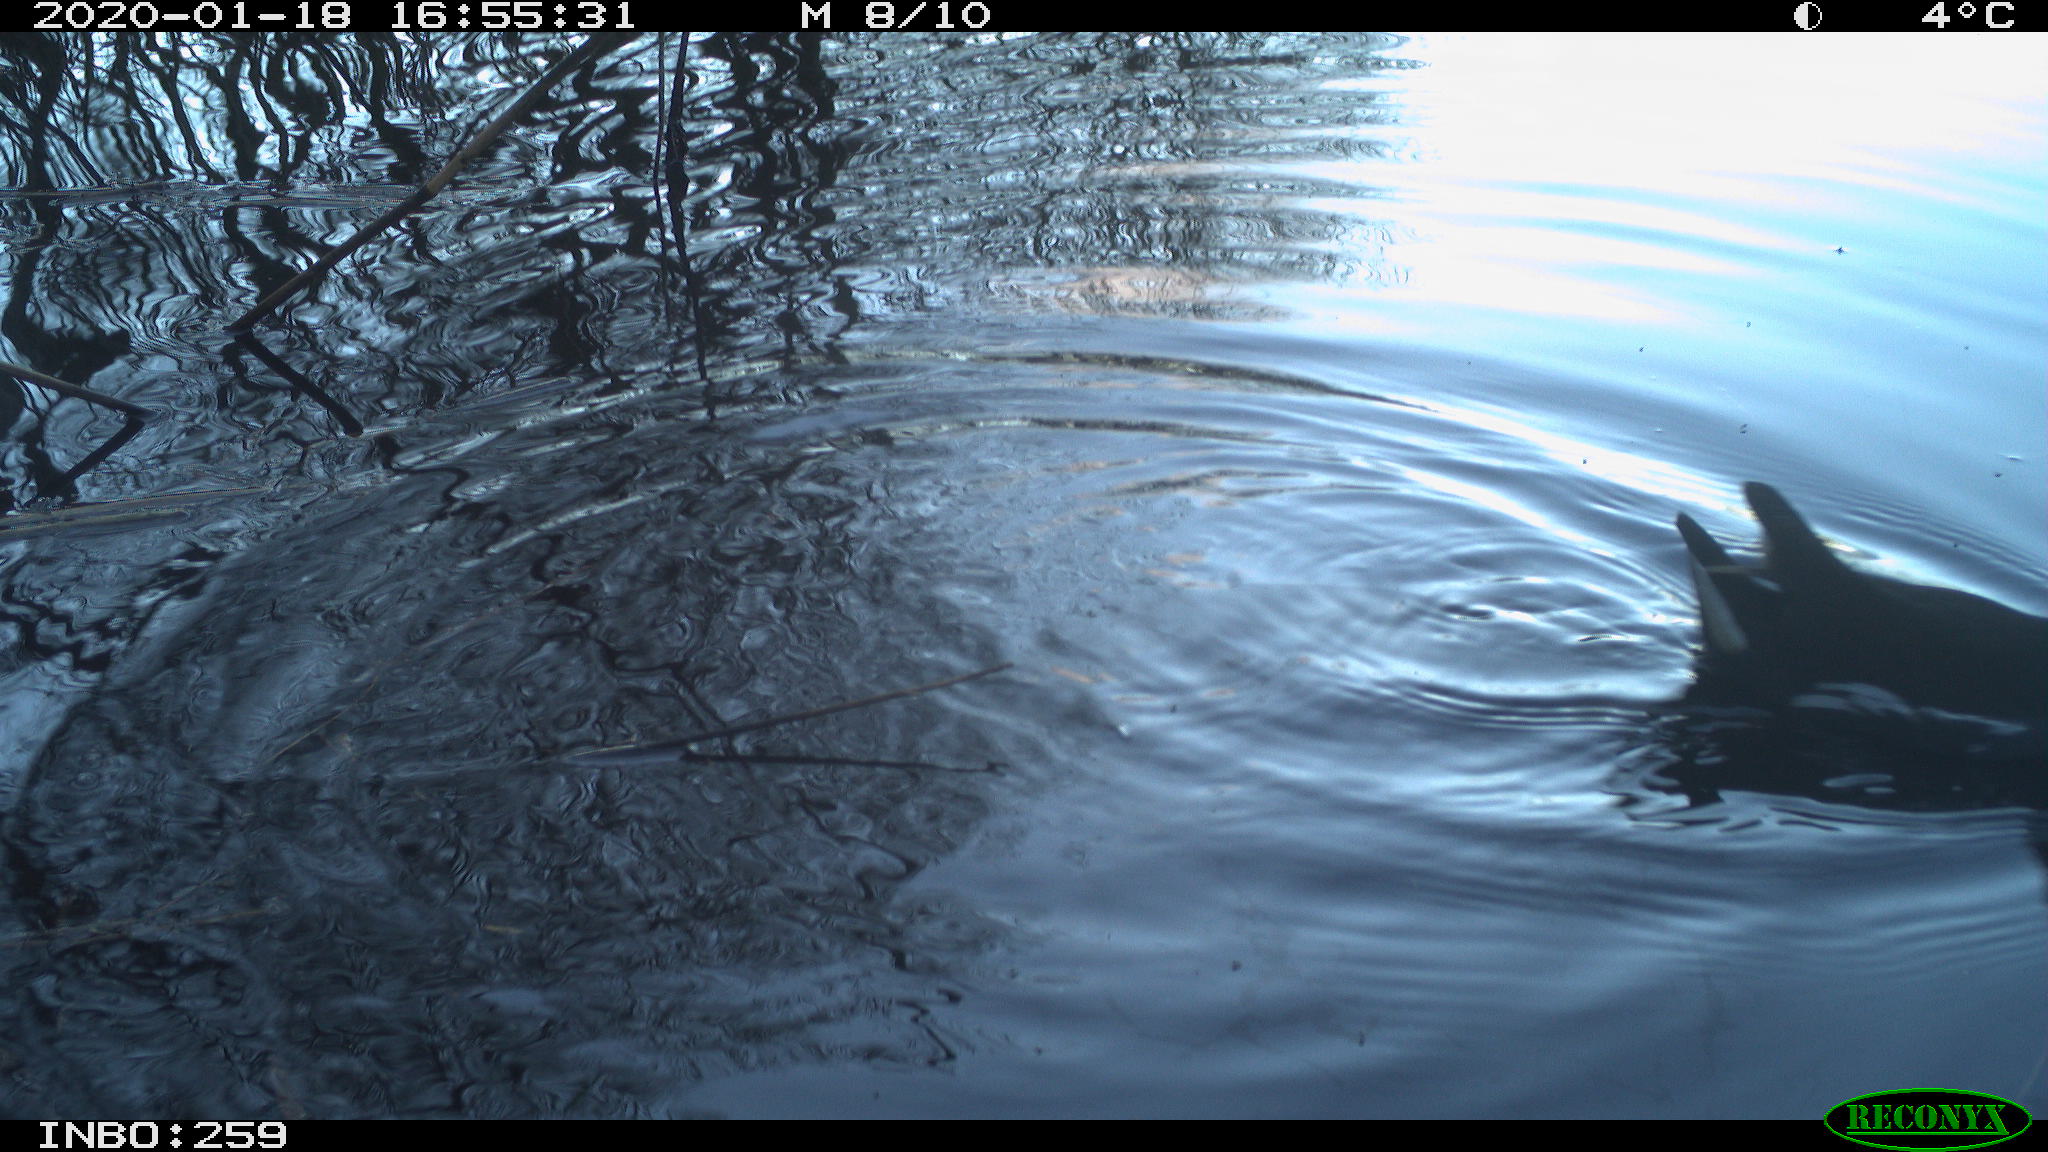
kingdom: Animalia
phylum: Chordata
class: Aves
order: Gruiformes
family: Rallidae
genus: Gallinula
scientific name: Gallinula chloropus
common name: Common moorhen
